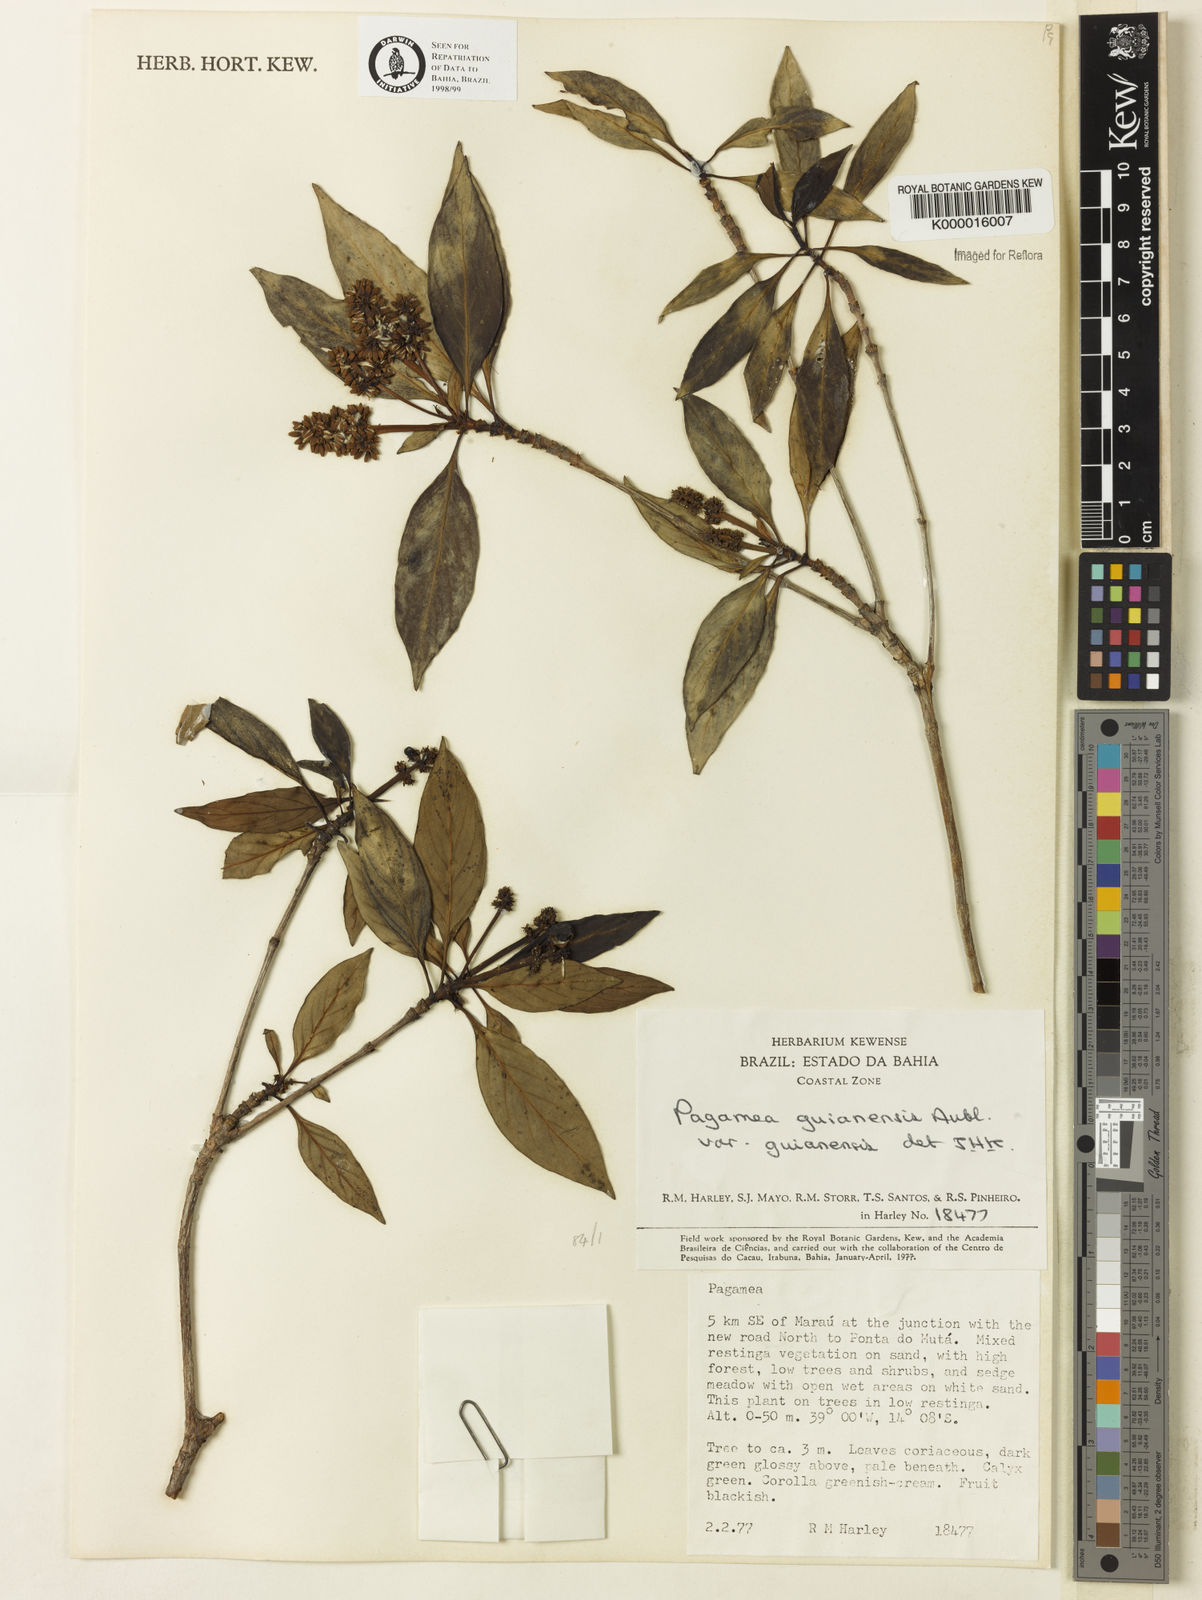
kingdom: Plantae
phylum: Tracheophyta
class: Magnoliopsida
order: Gentianales
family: Rubiaceae
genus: Pagamea
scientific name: Pagamea guianensis
